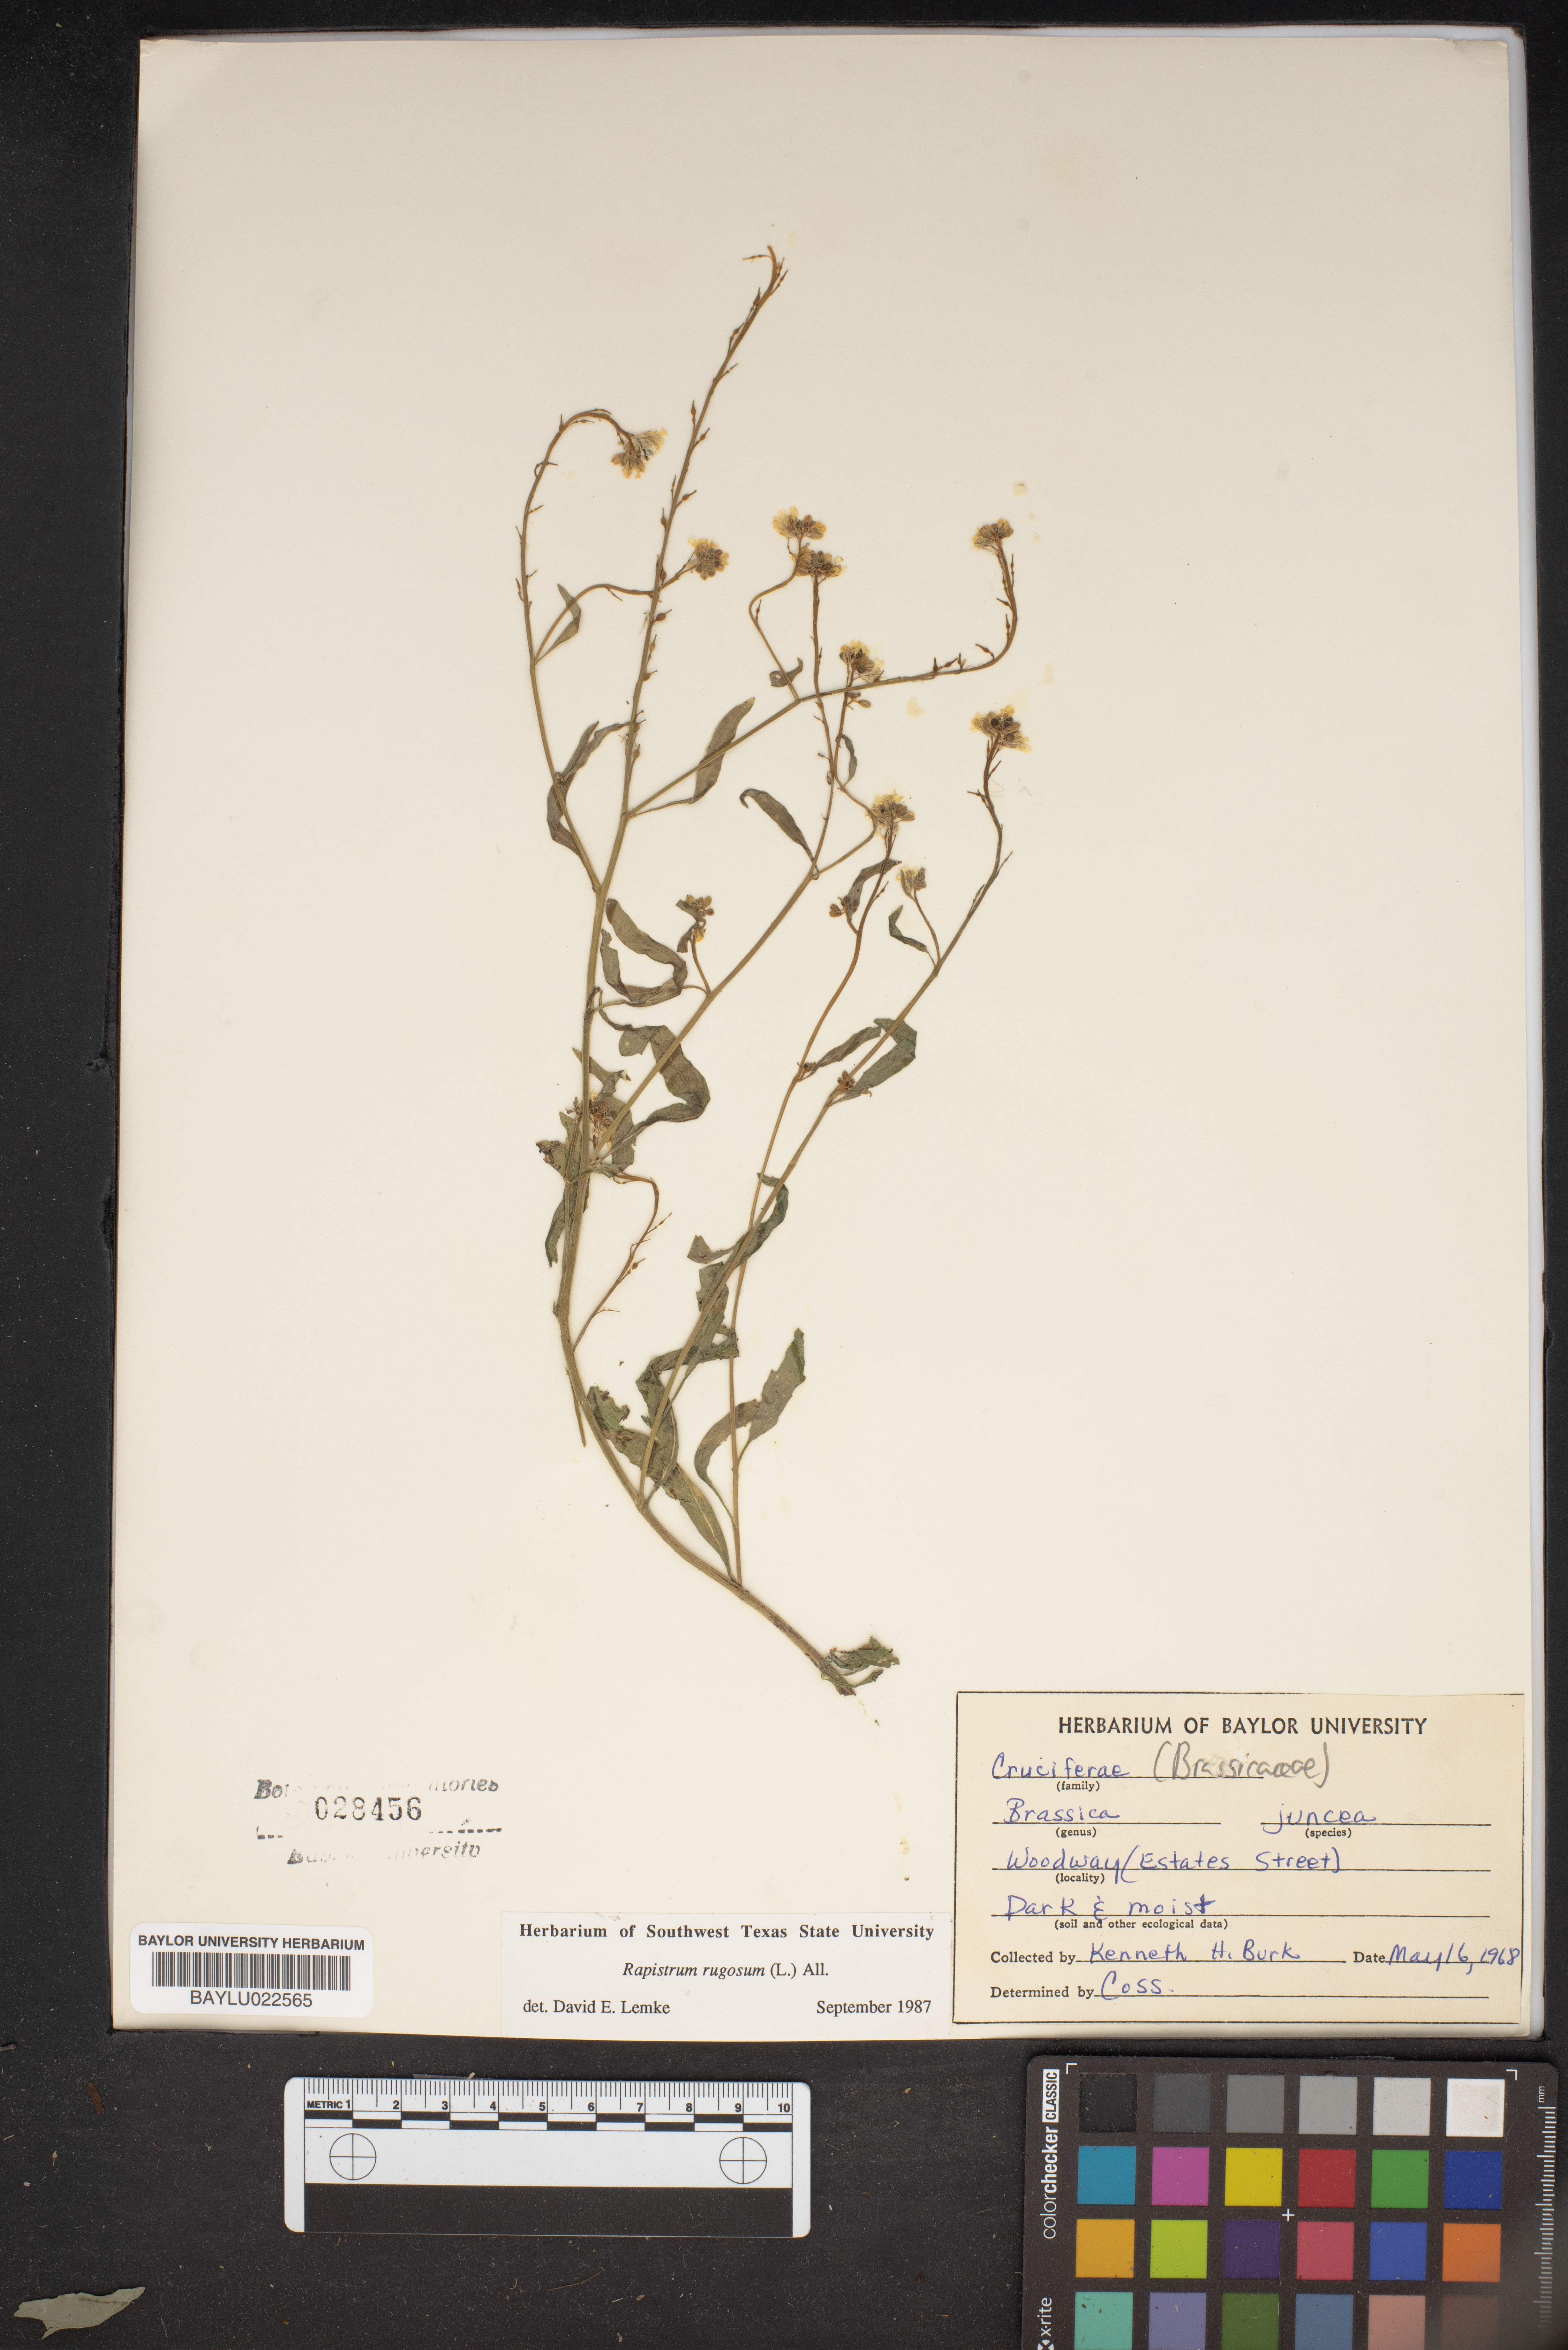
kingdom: Plantae
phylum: Tracheophyta
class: Magnoliopsida
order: Brassicales
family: Brassicaceae
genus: Rapistrum
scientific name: Rapistrum rugosum
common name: Annual bastardcabbage
